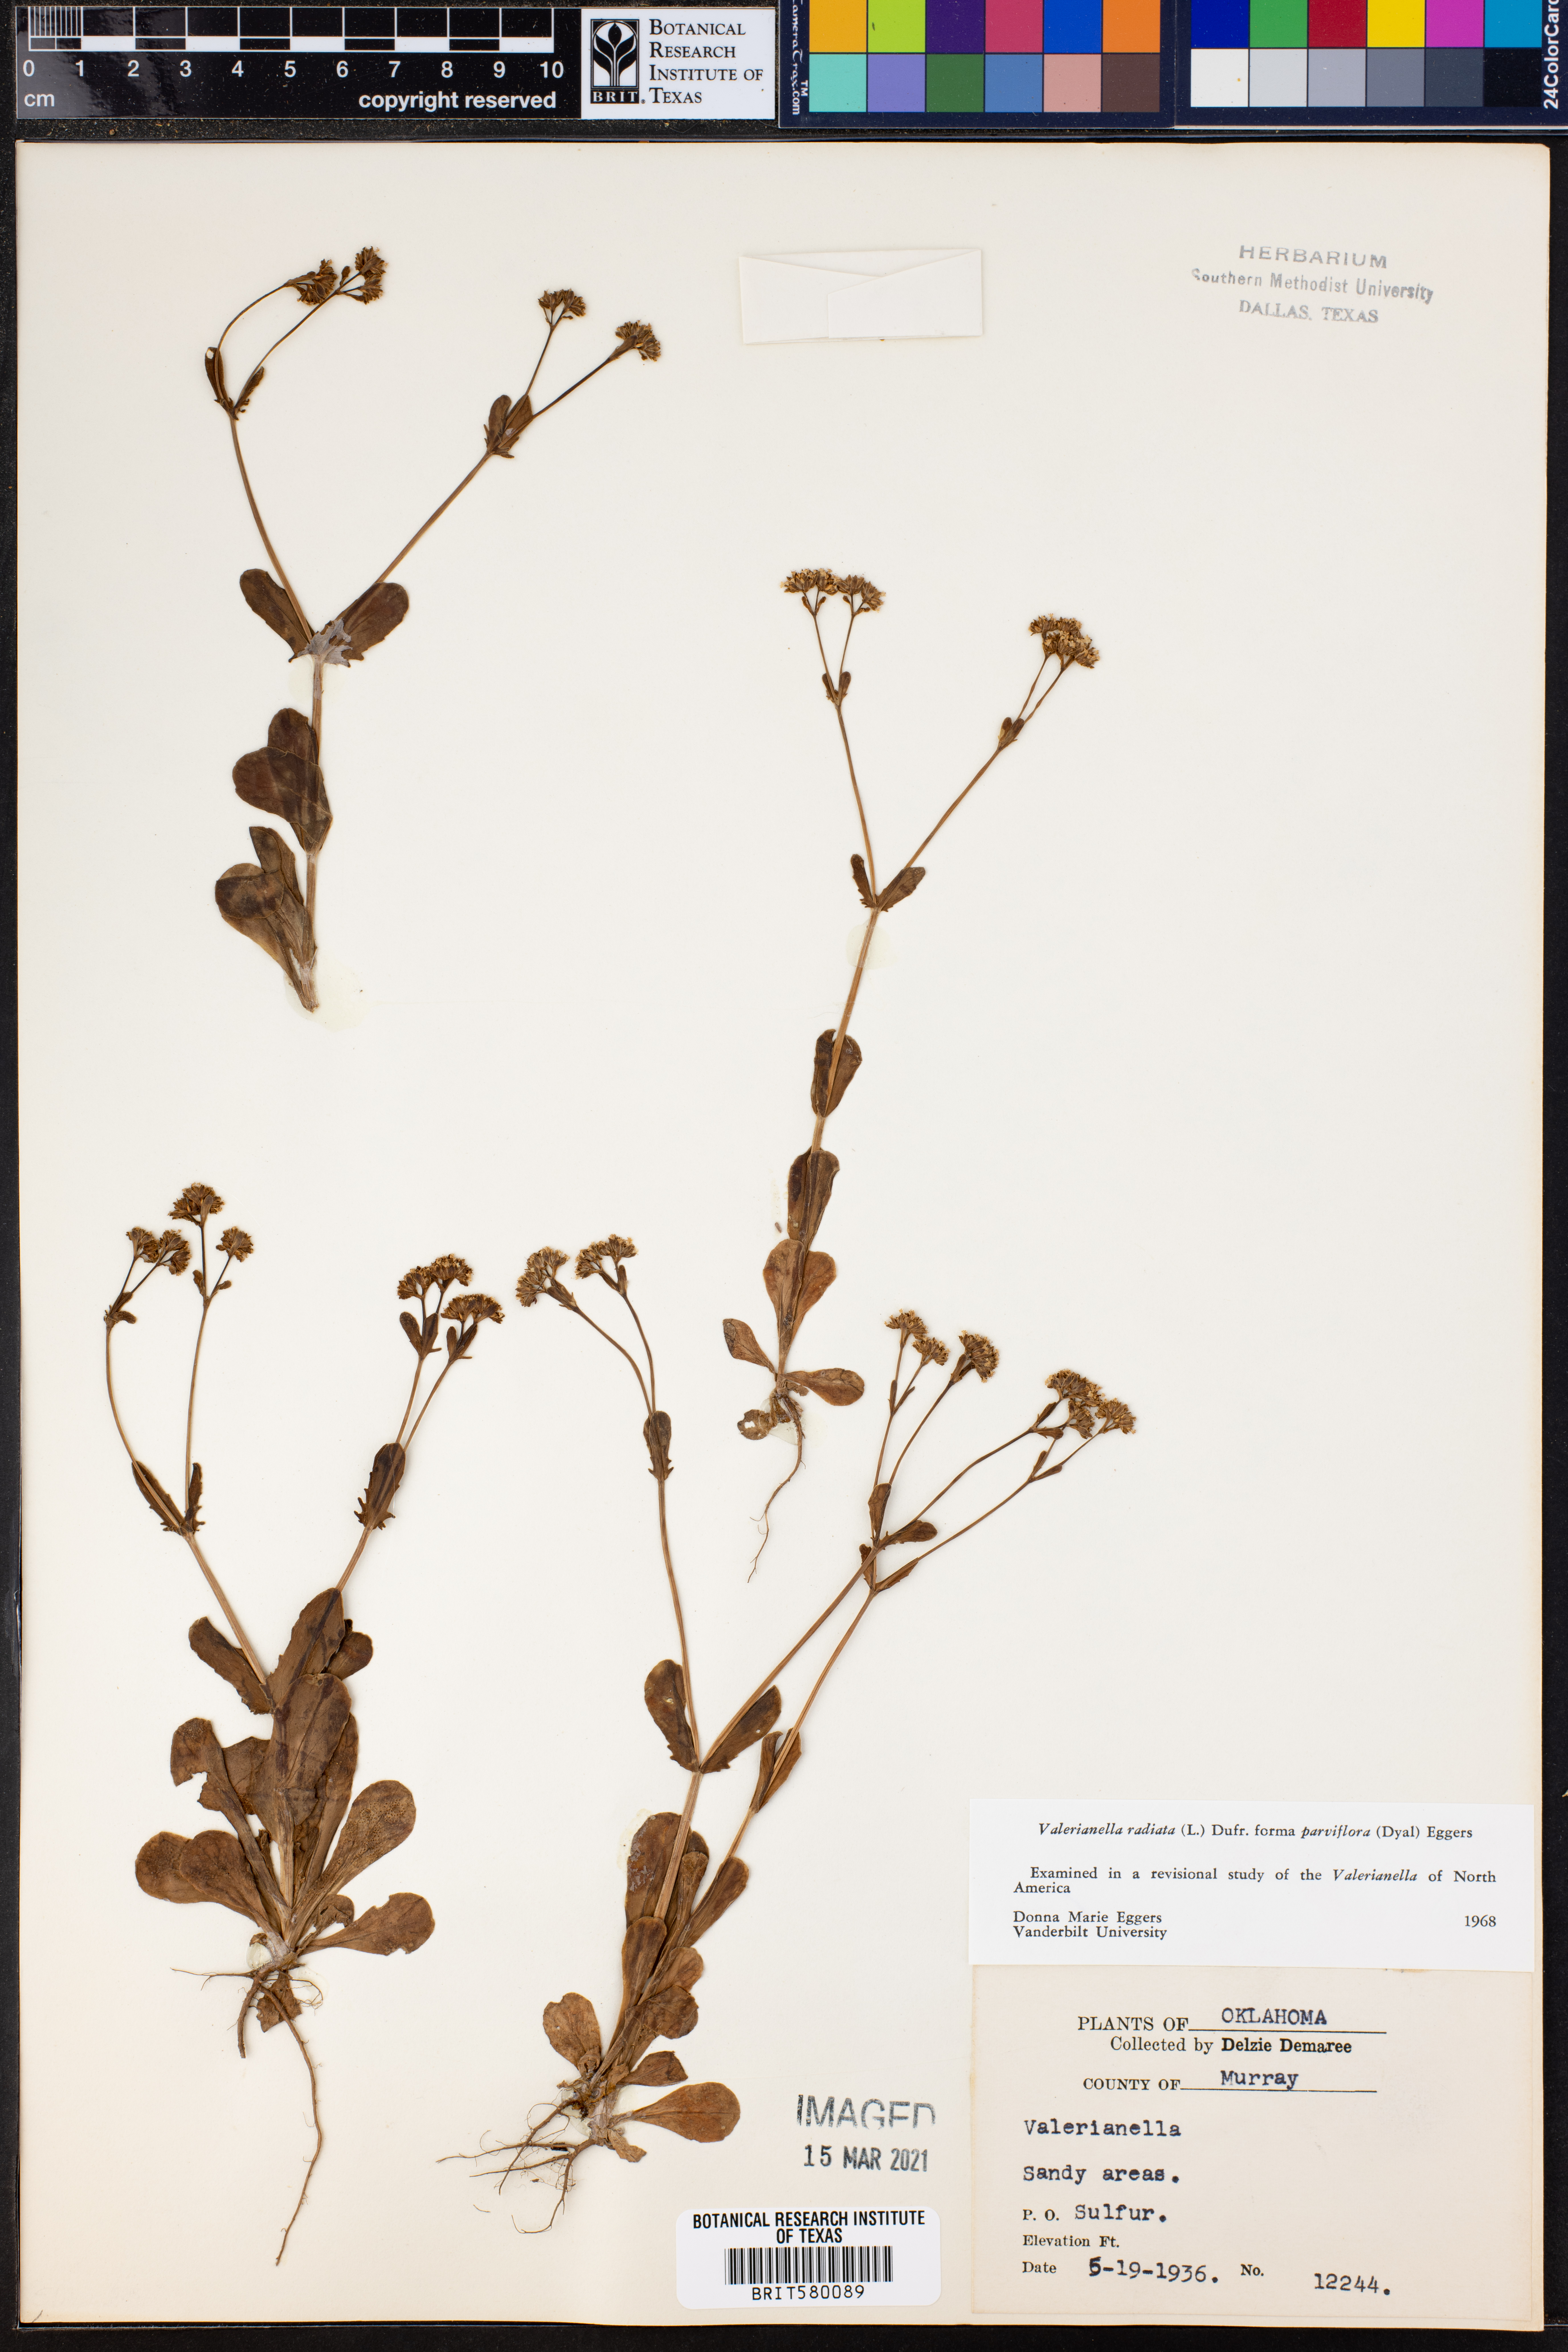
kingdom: Plantae
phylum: Tracheophyta
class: Magnoliopsida
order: Dipsacales
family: Caprifoliaceae
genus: Valerianella
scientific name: Valerianella radiata
